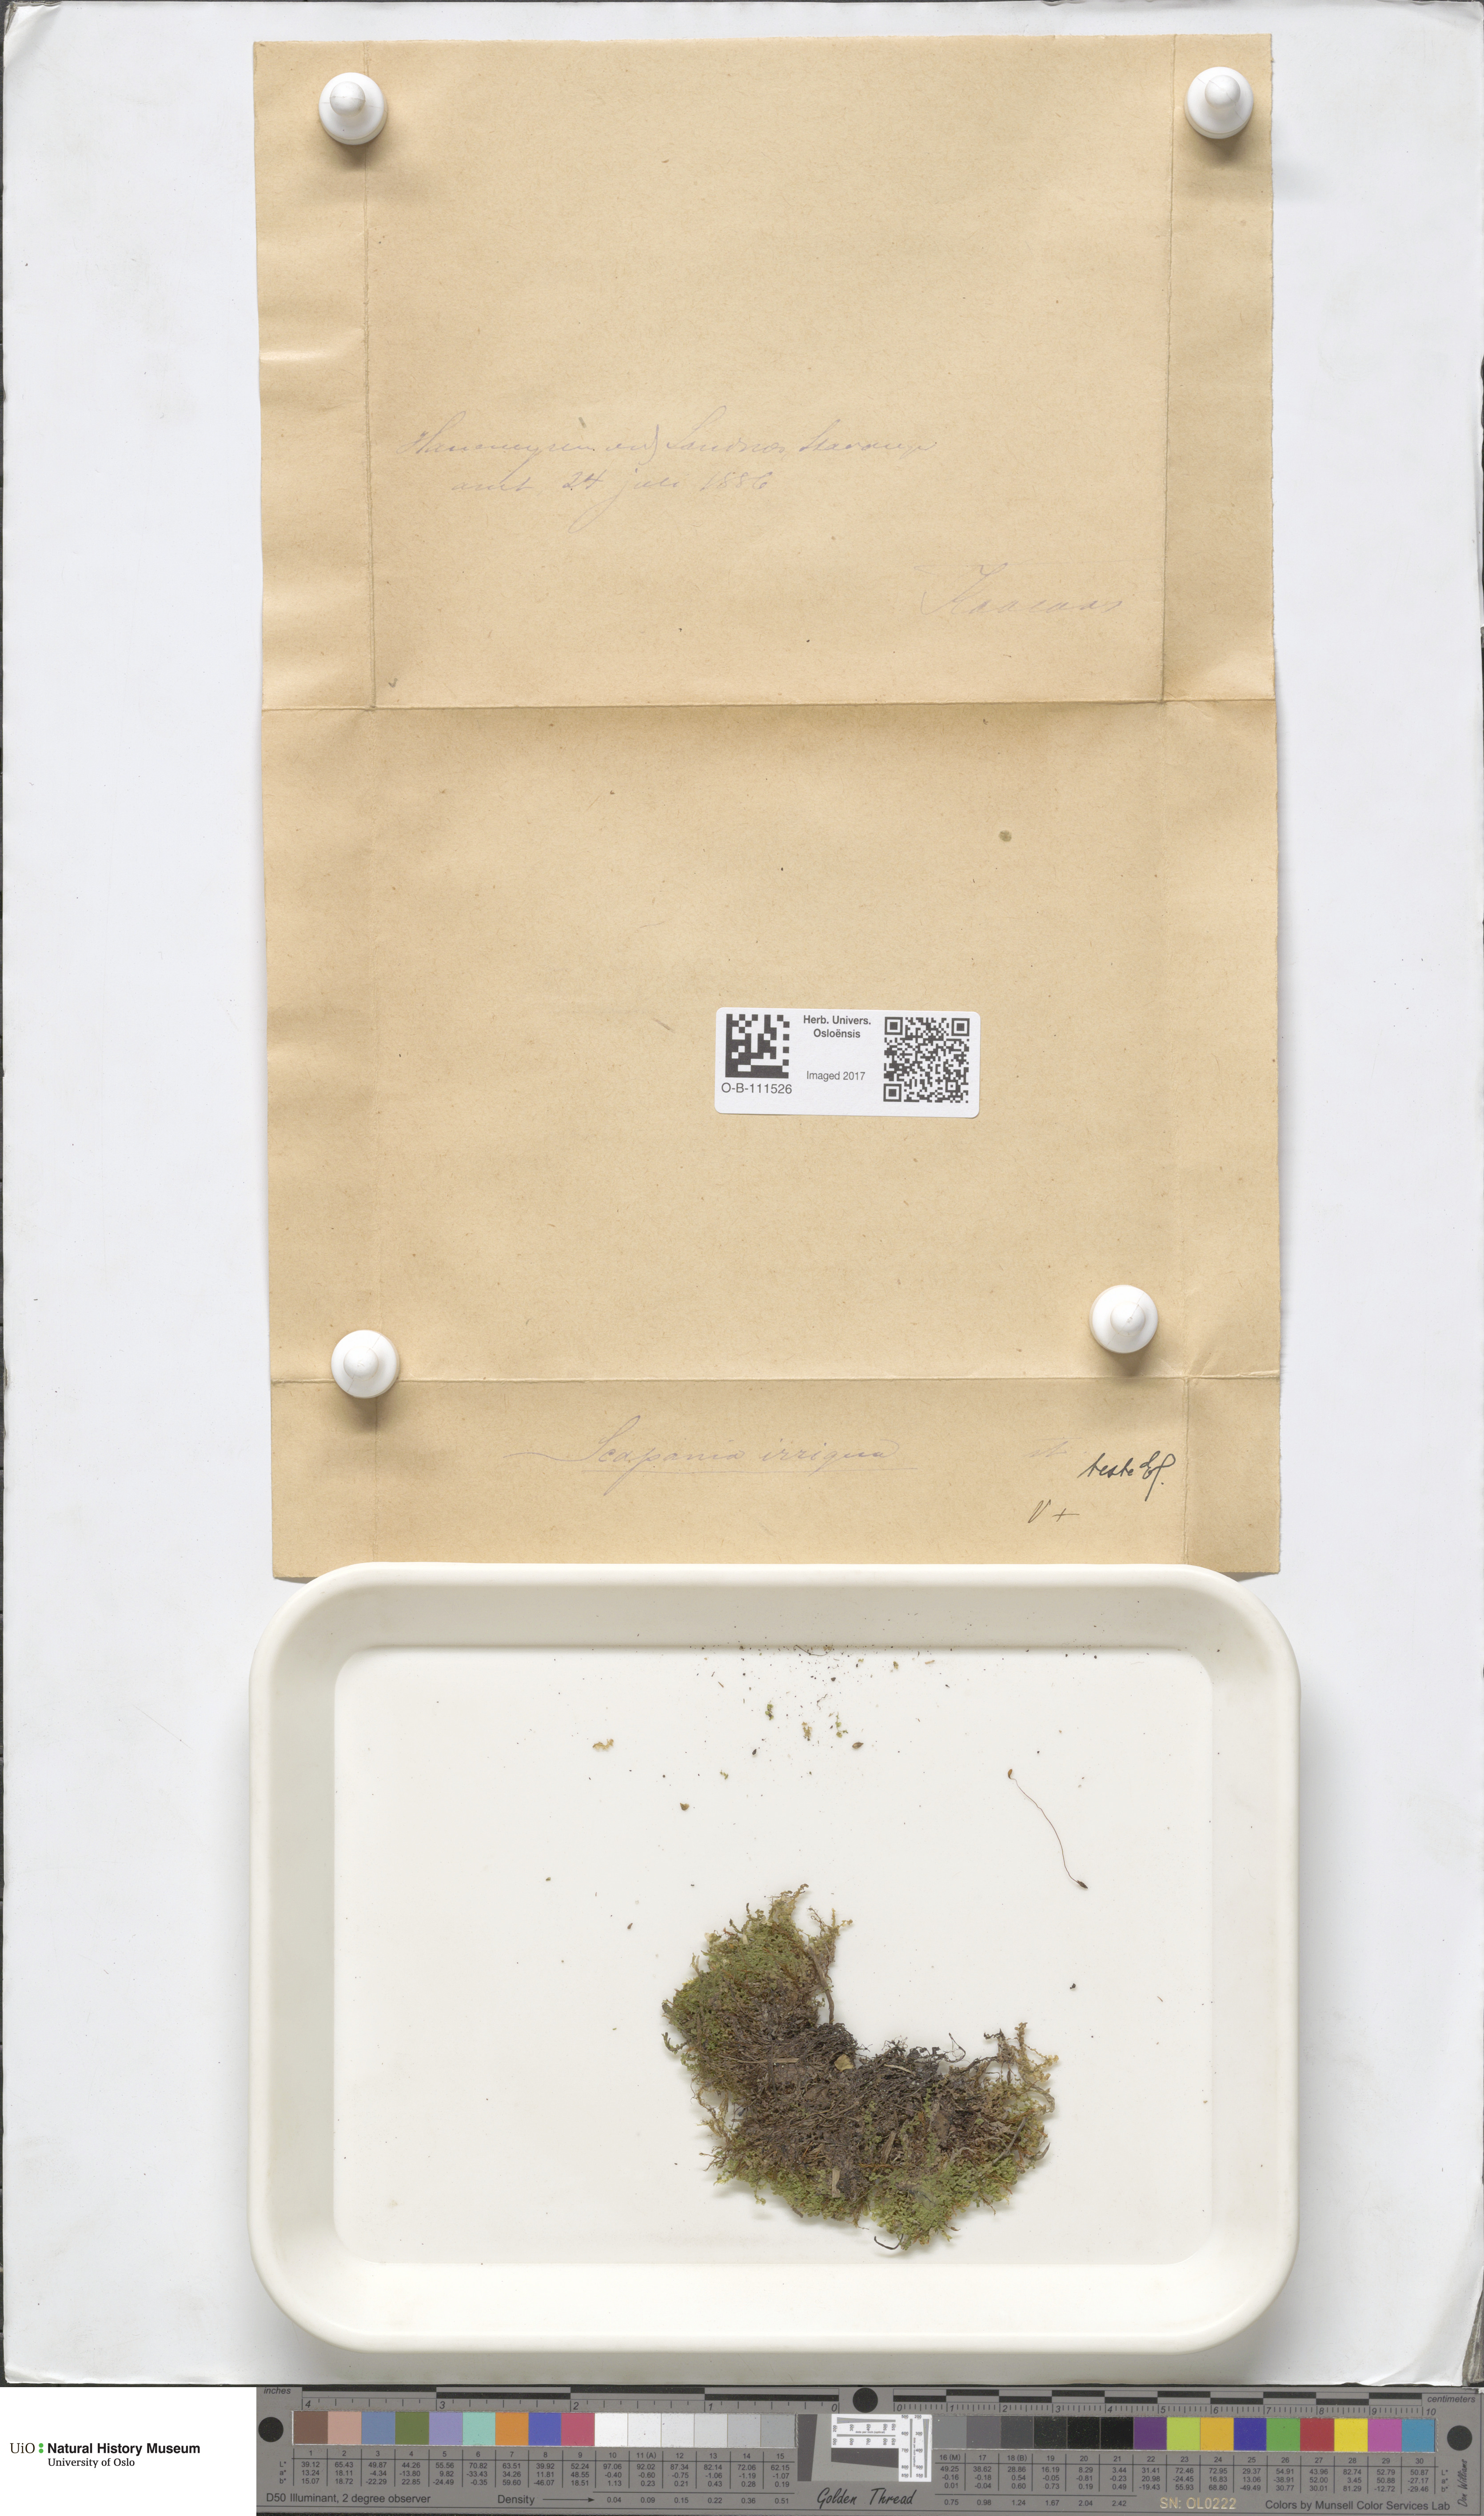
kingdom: Plantae
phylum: Marchantiophyta
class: Jungermanniopsida
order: Jungermanniales
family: Scapaniaceae
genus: Scapania
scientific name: Scapania irrigua
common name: Heath earwort
